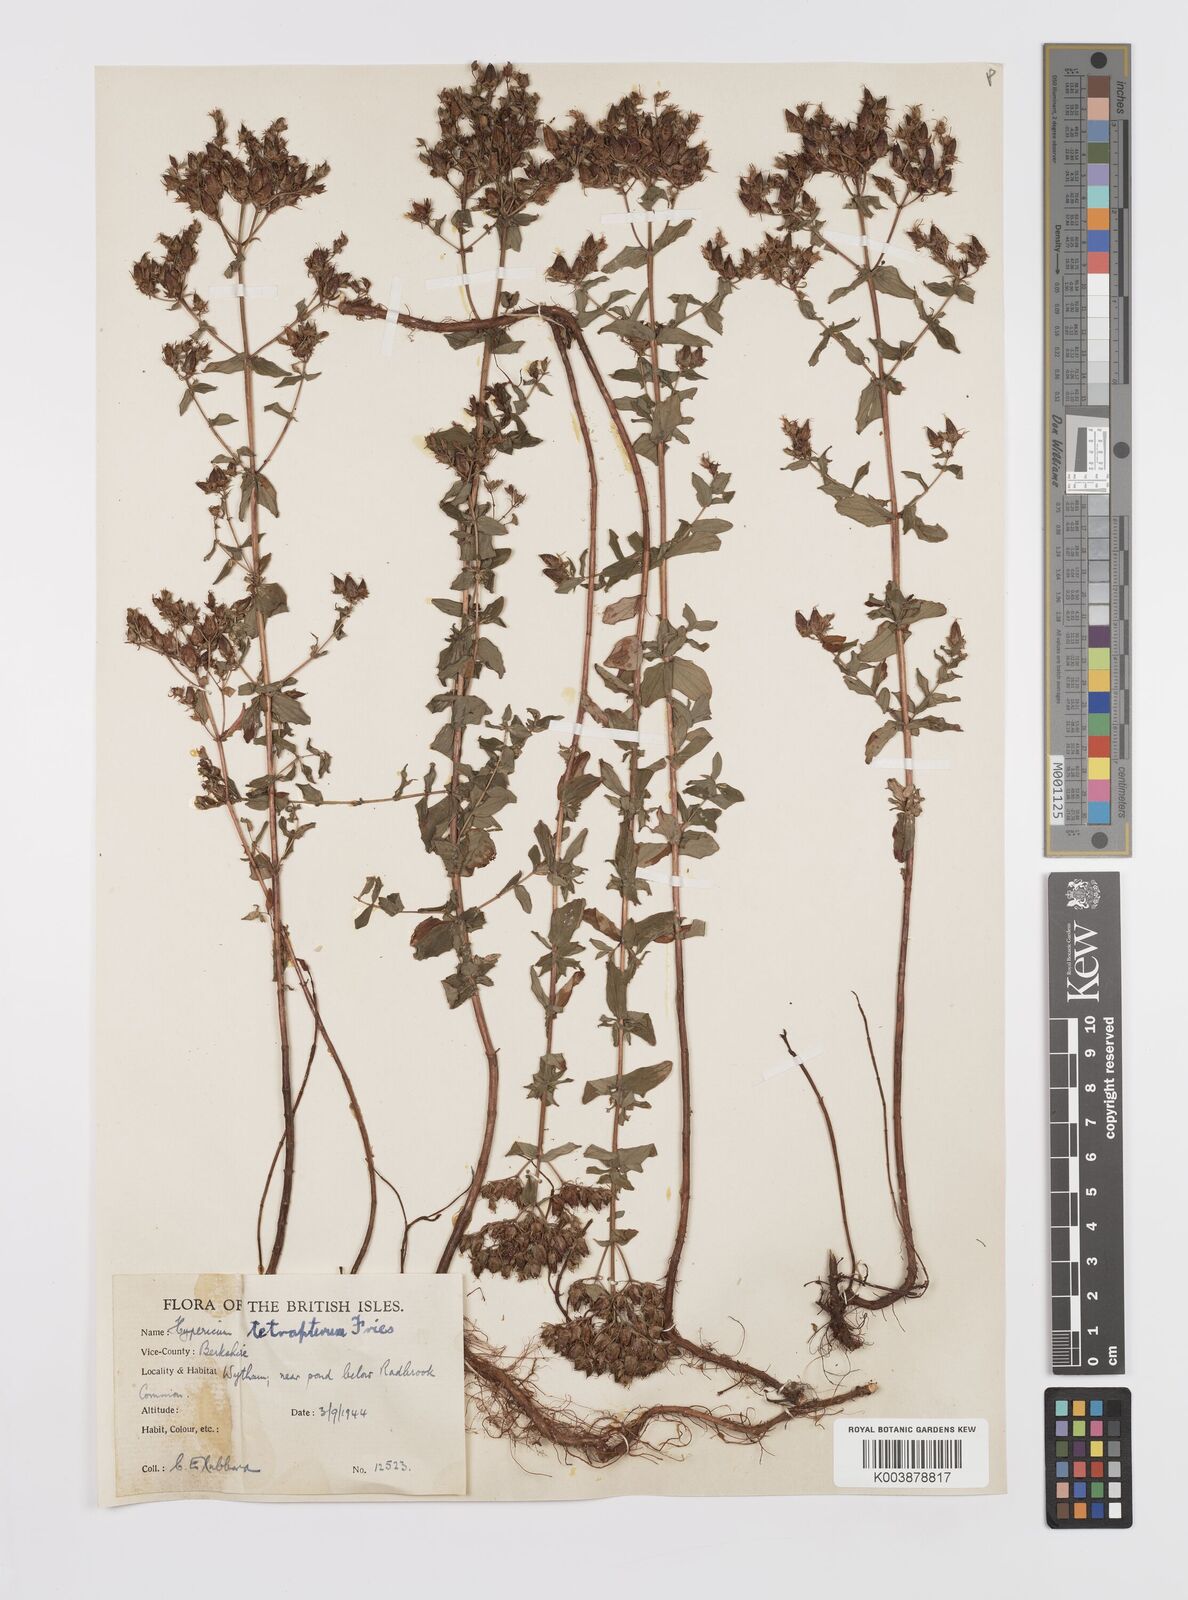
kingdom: Plantae
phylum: Tracheophyta
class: Magnoliopsida
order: Malpighiales
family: Hypericaceae
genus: Hypericum
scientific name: Hypericum tetrapterum
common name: Square-stalked st. john's-wort
